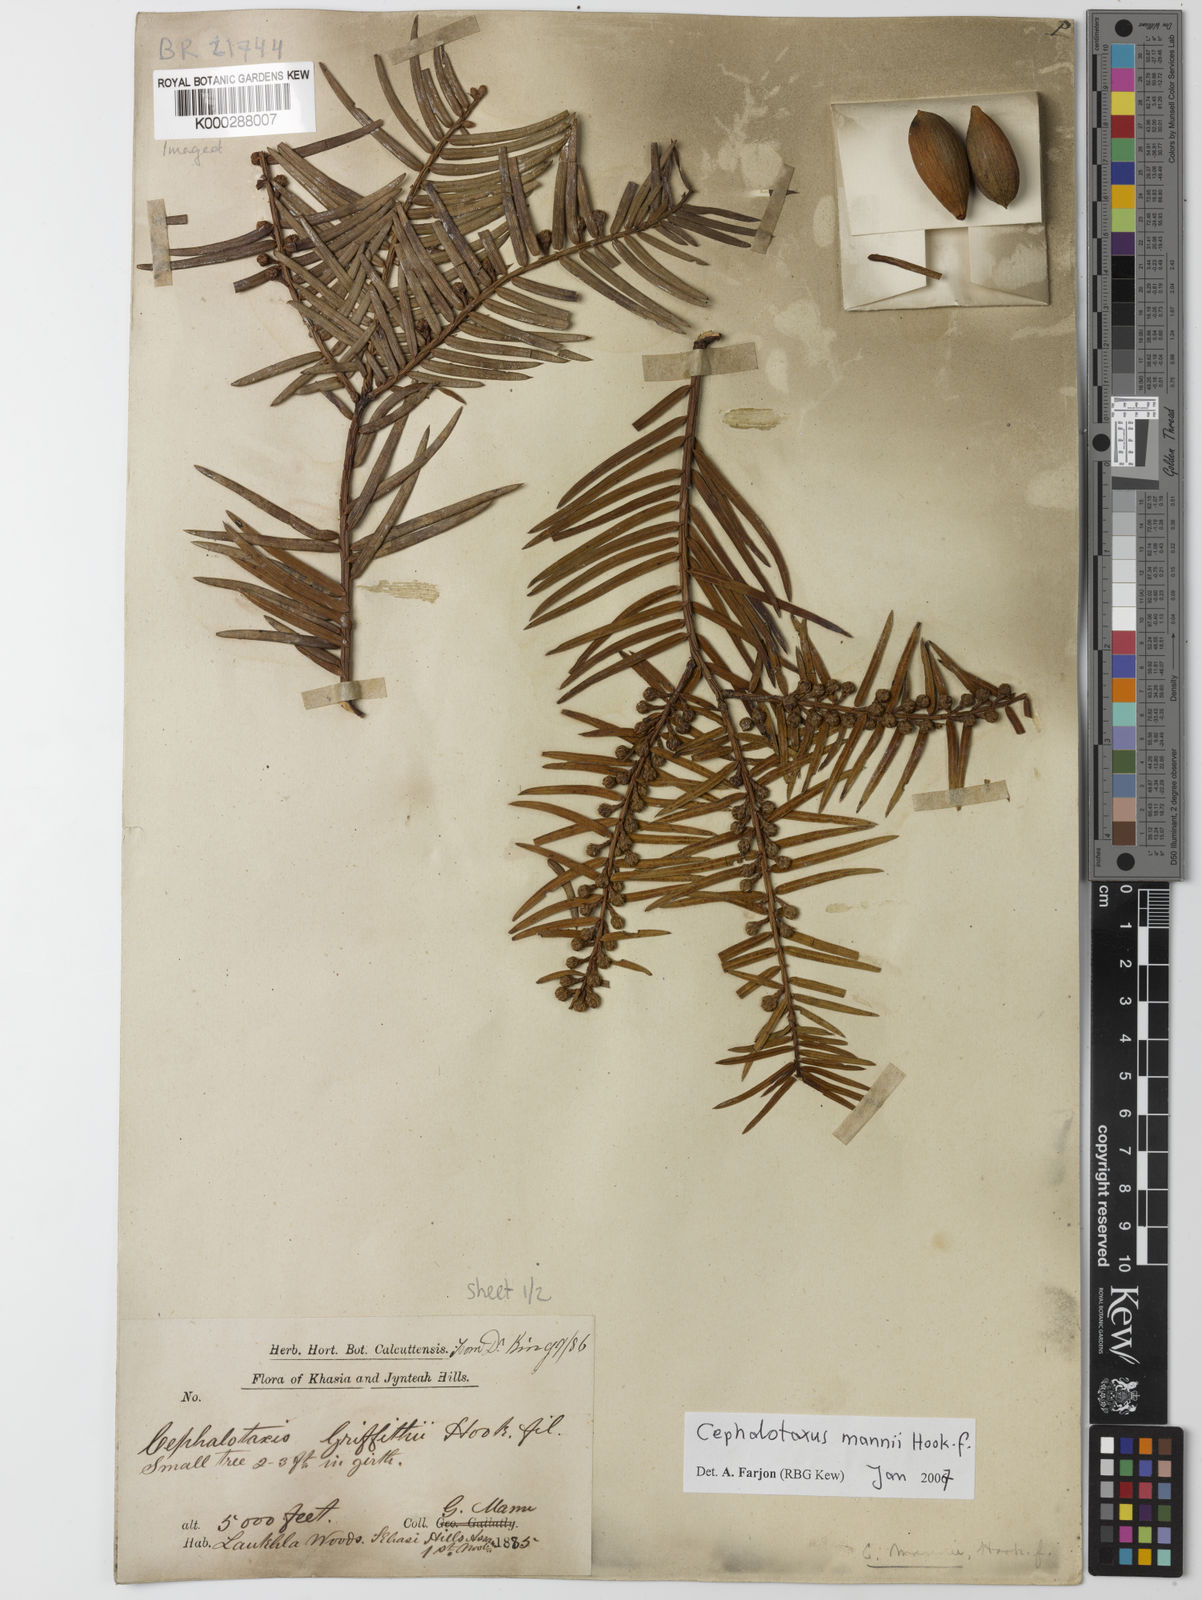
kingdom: Plantae
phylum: Tracheophyta
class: Pinopsida
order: Pinales
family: Cephalotaxaceae
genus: Cephalotaxus
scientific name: Cephalotaxus mannii
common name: Mann's yew plum
